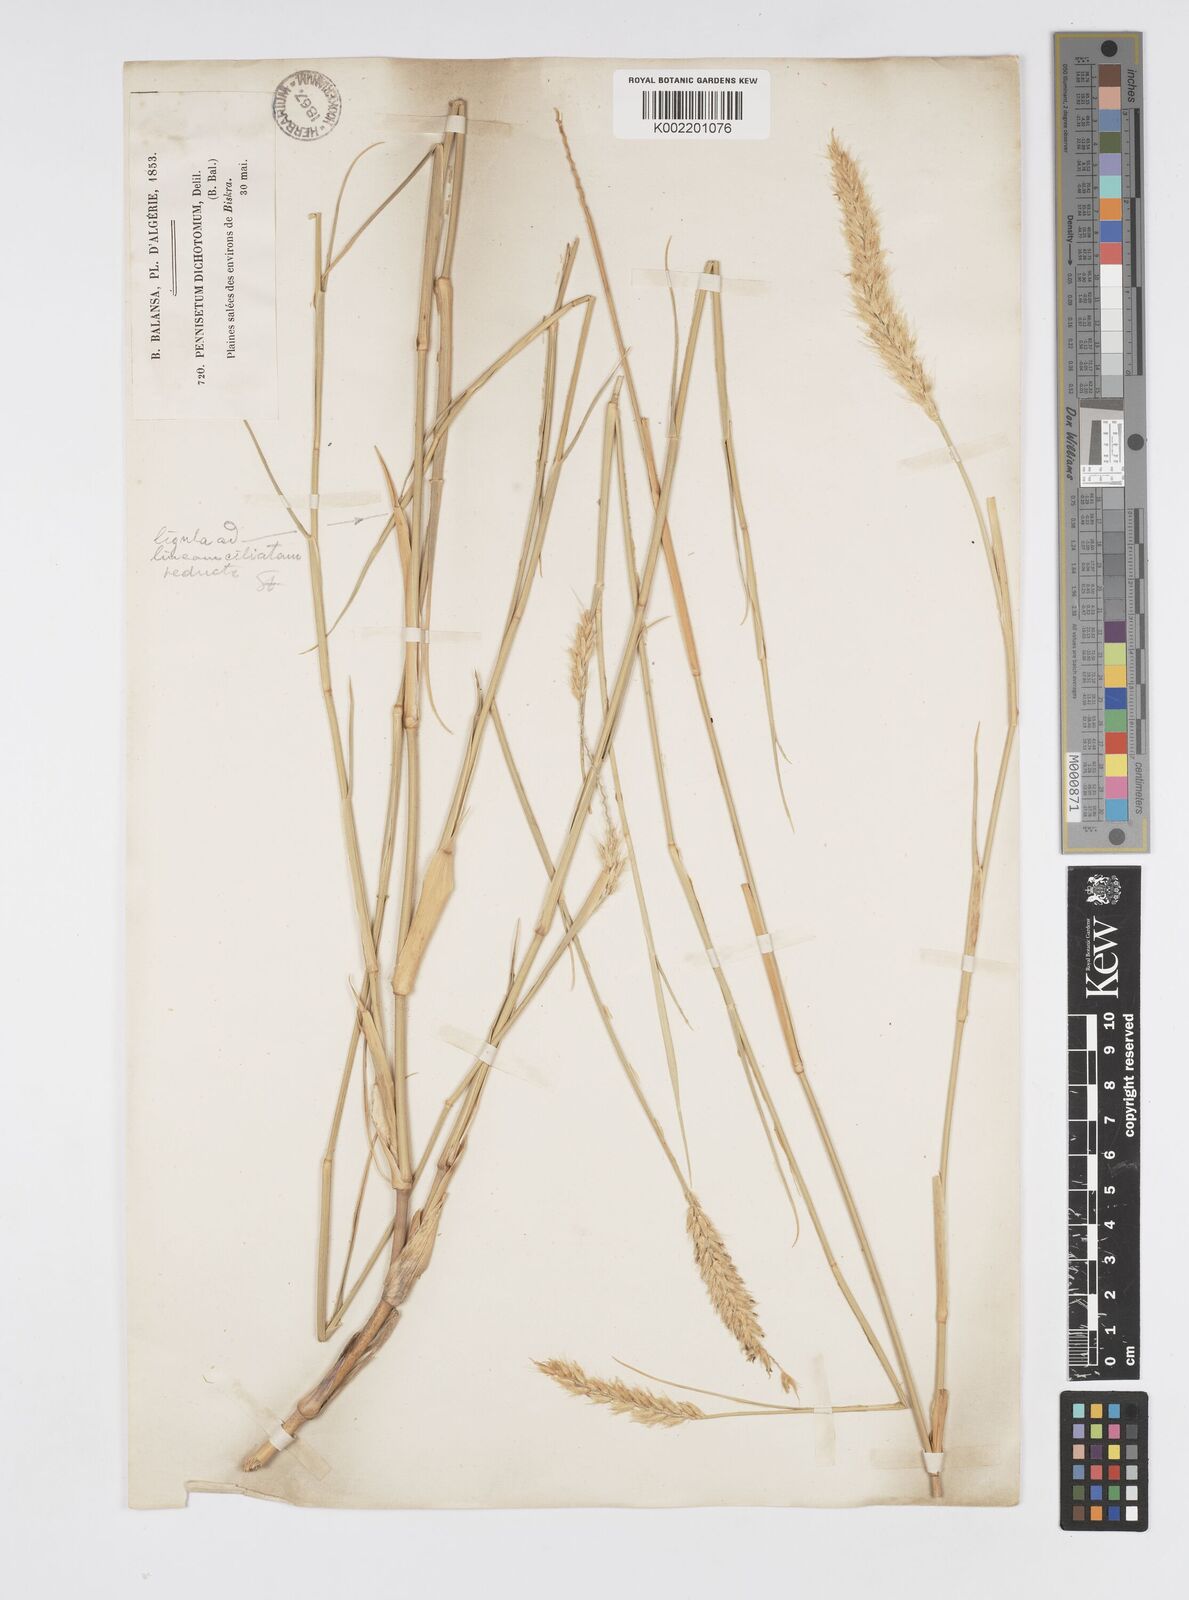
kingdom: Plantae
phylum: Tracheophyta
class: Liliopsida
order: Poales
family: Poaceae
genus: Cenchrus
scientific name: Cenchrus divisus
